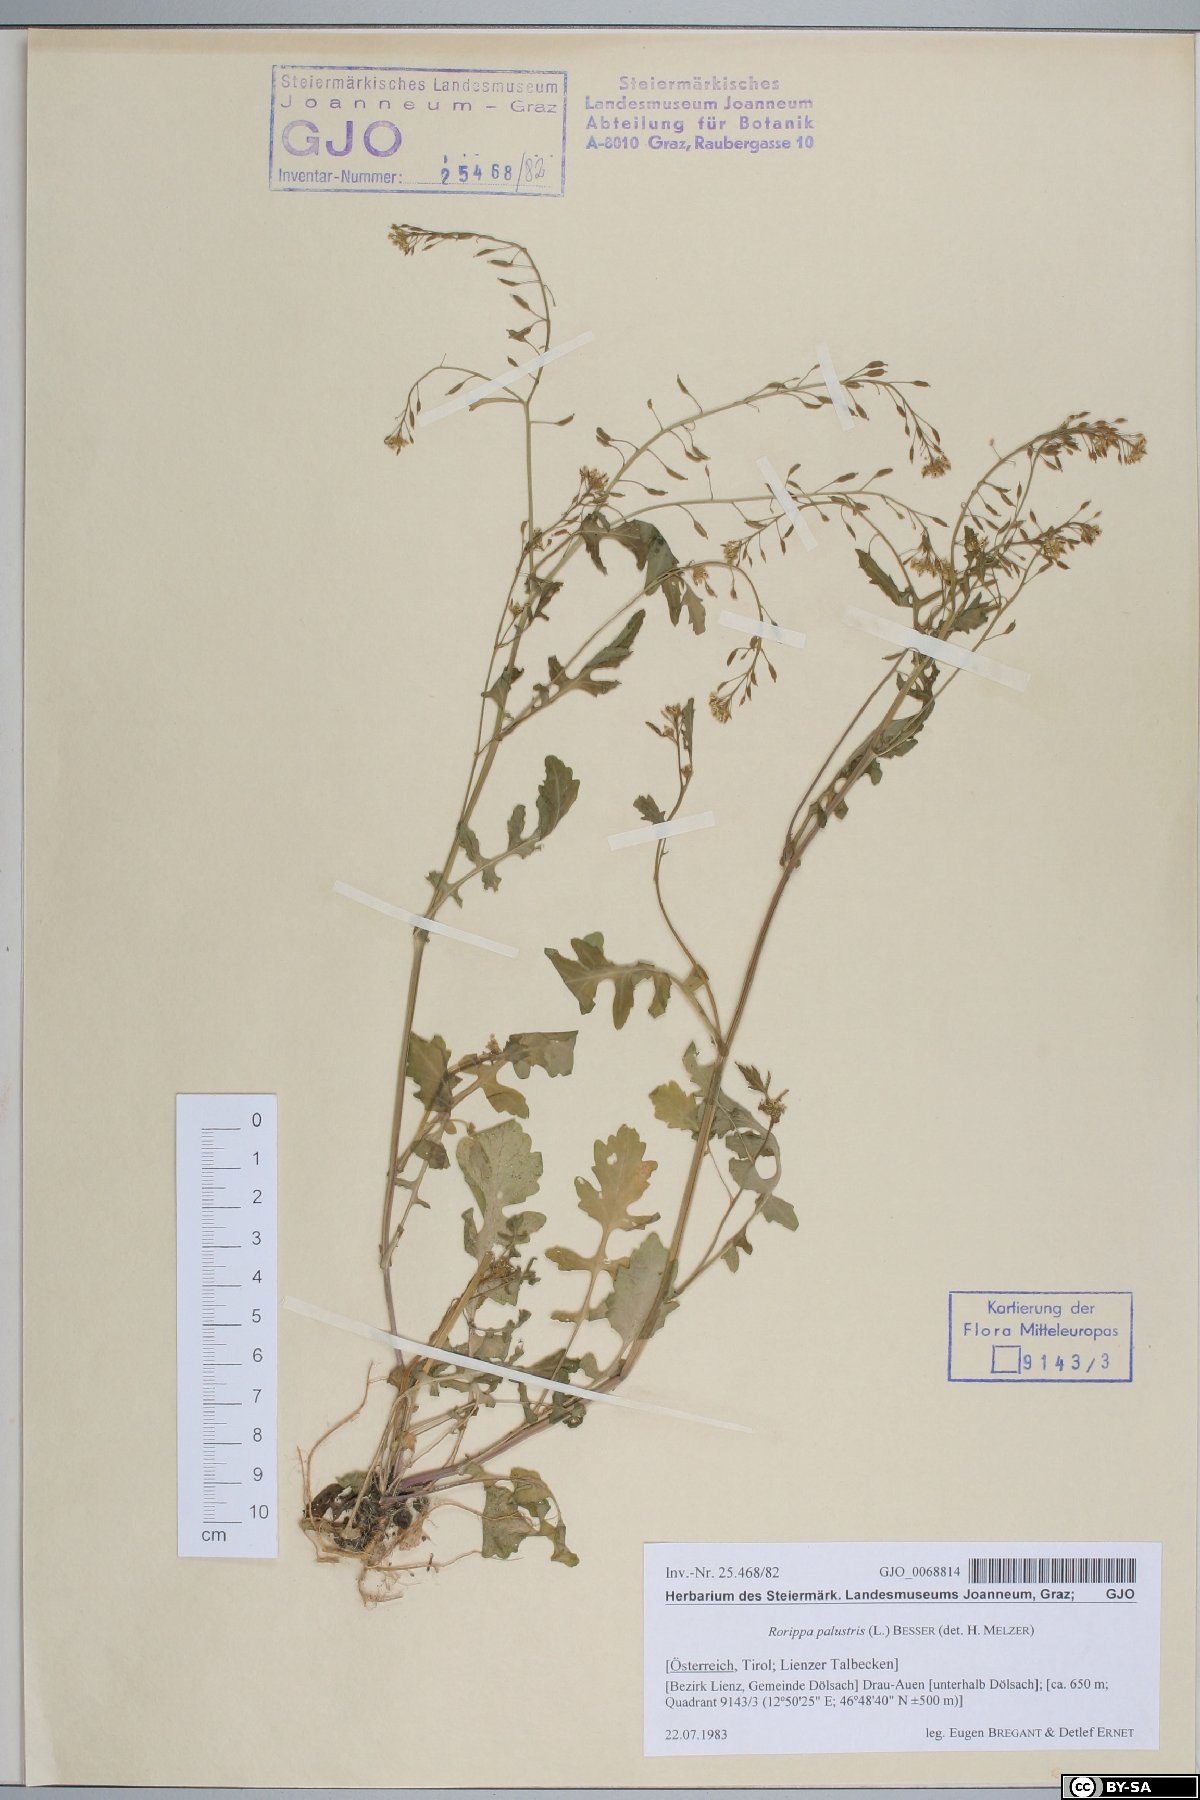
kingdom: Plantae
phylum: Tracheophyta
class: Magnoliopsida
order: Brassicales
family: Brassicaceae
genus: Rorippa
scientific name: Rorippa palustris
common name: Marsh yellow-cress
